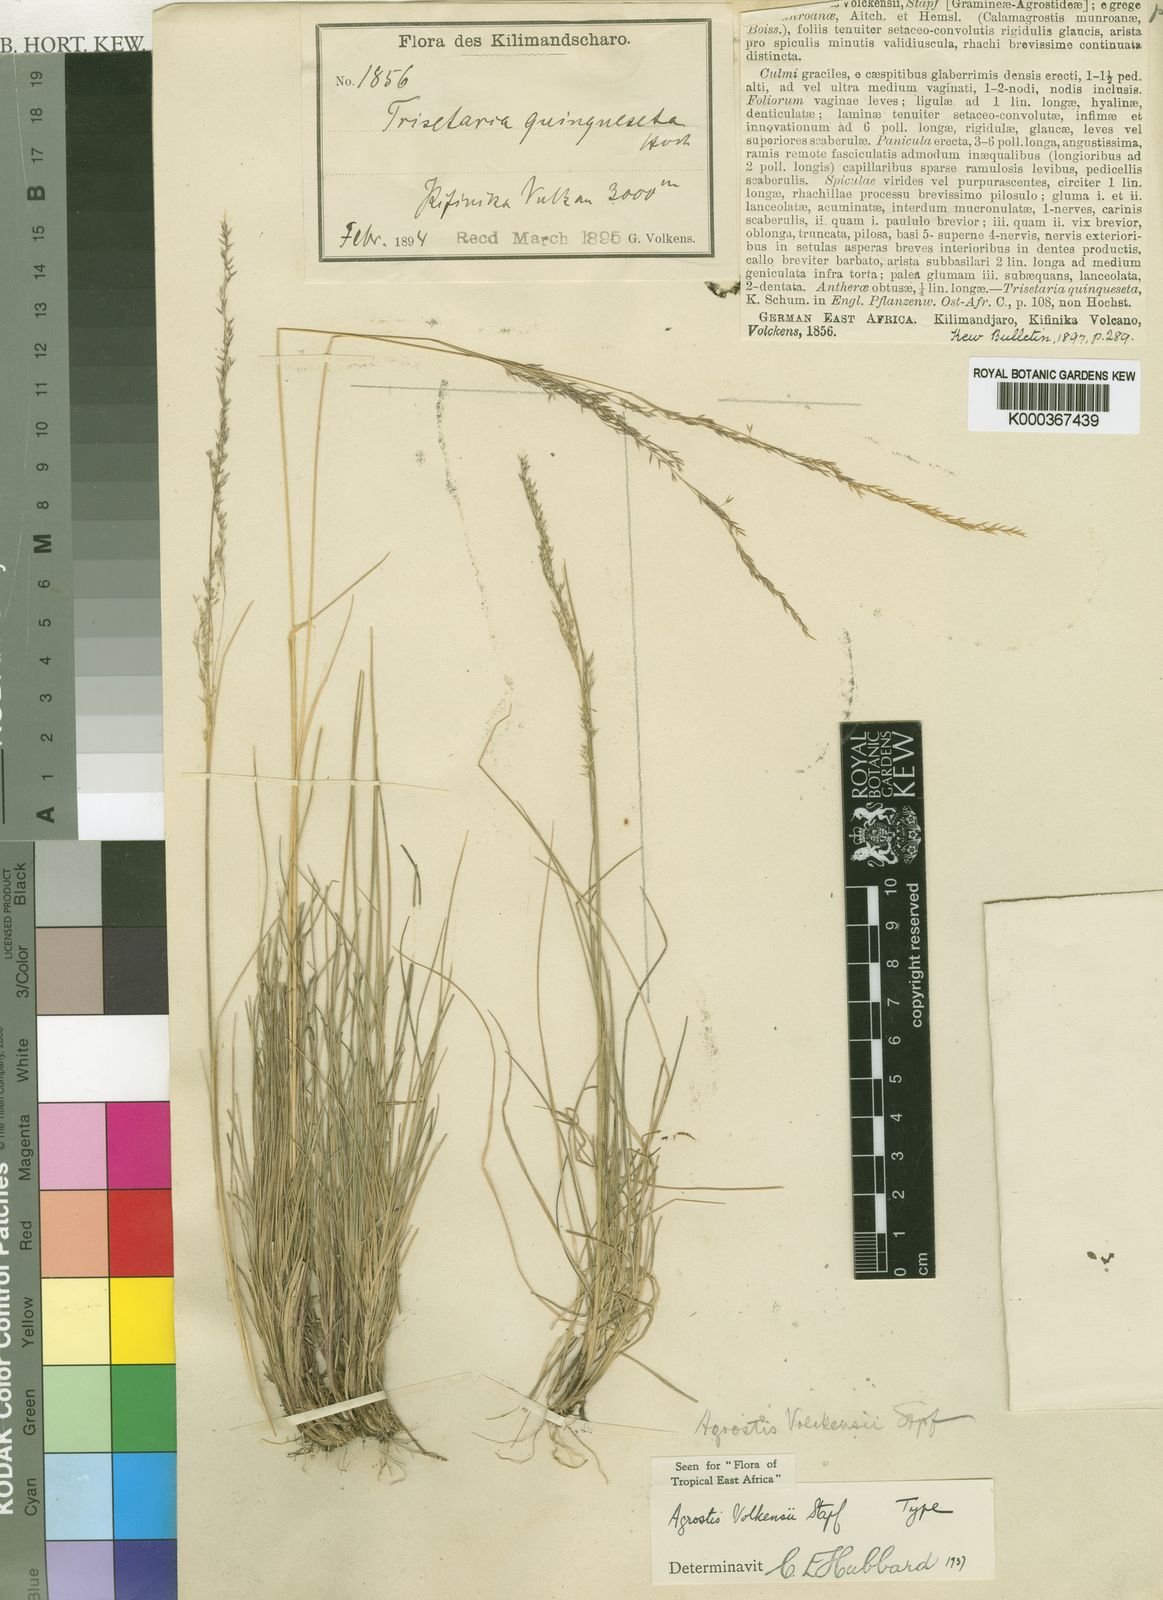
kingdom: Plantae
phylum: Tracheophyta
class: Liliopsida
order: Poales
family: Poaceae
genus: Agrostis
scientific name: Agrostis volkensii
